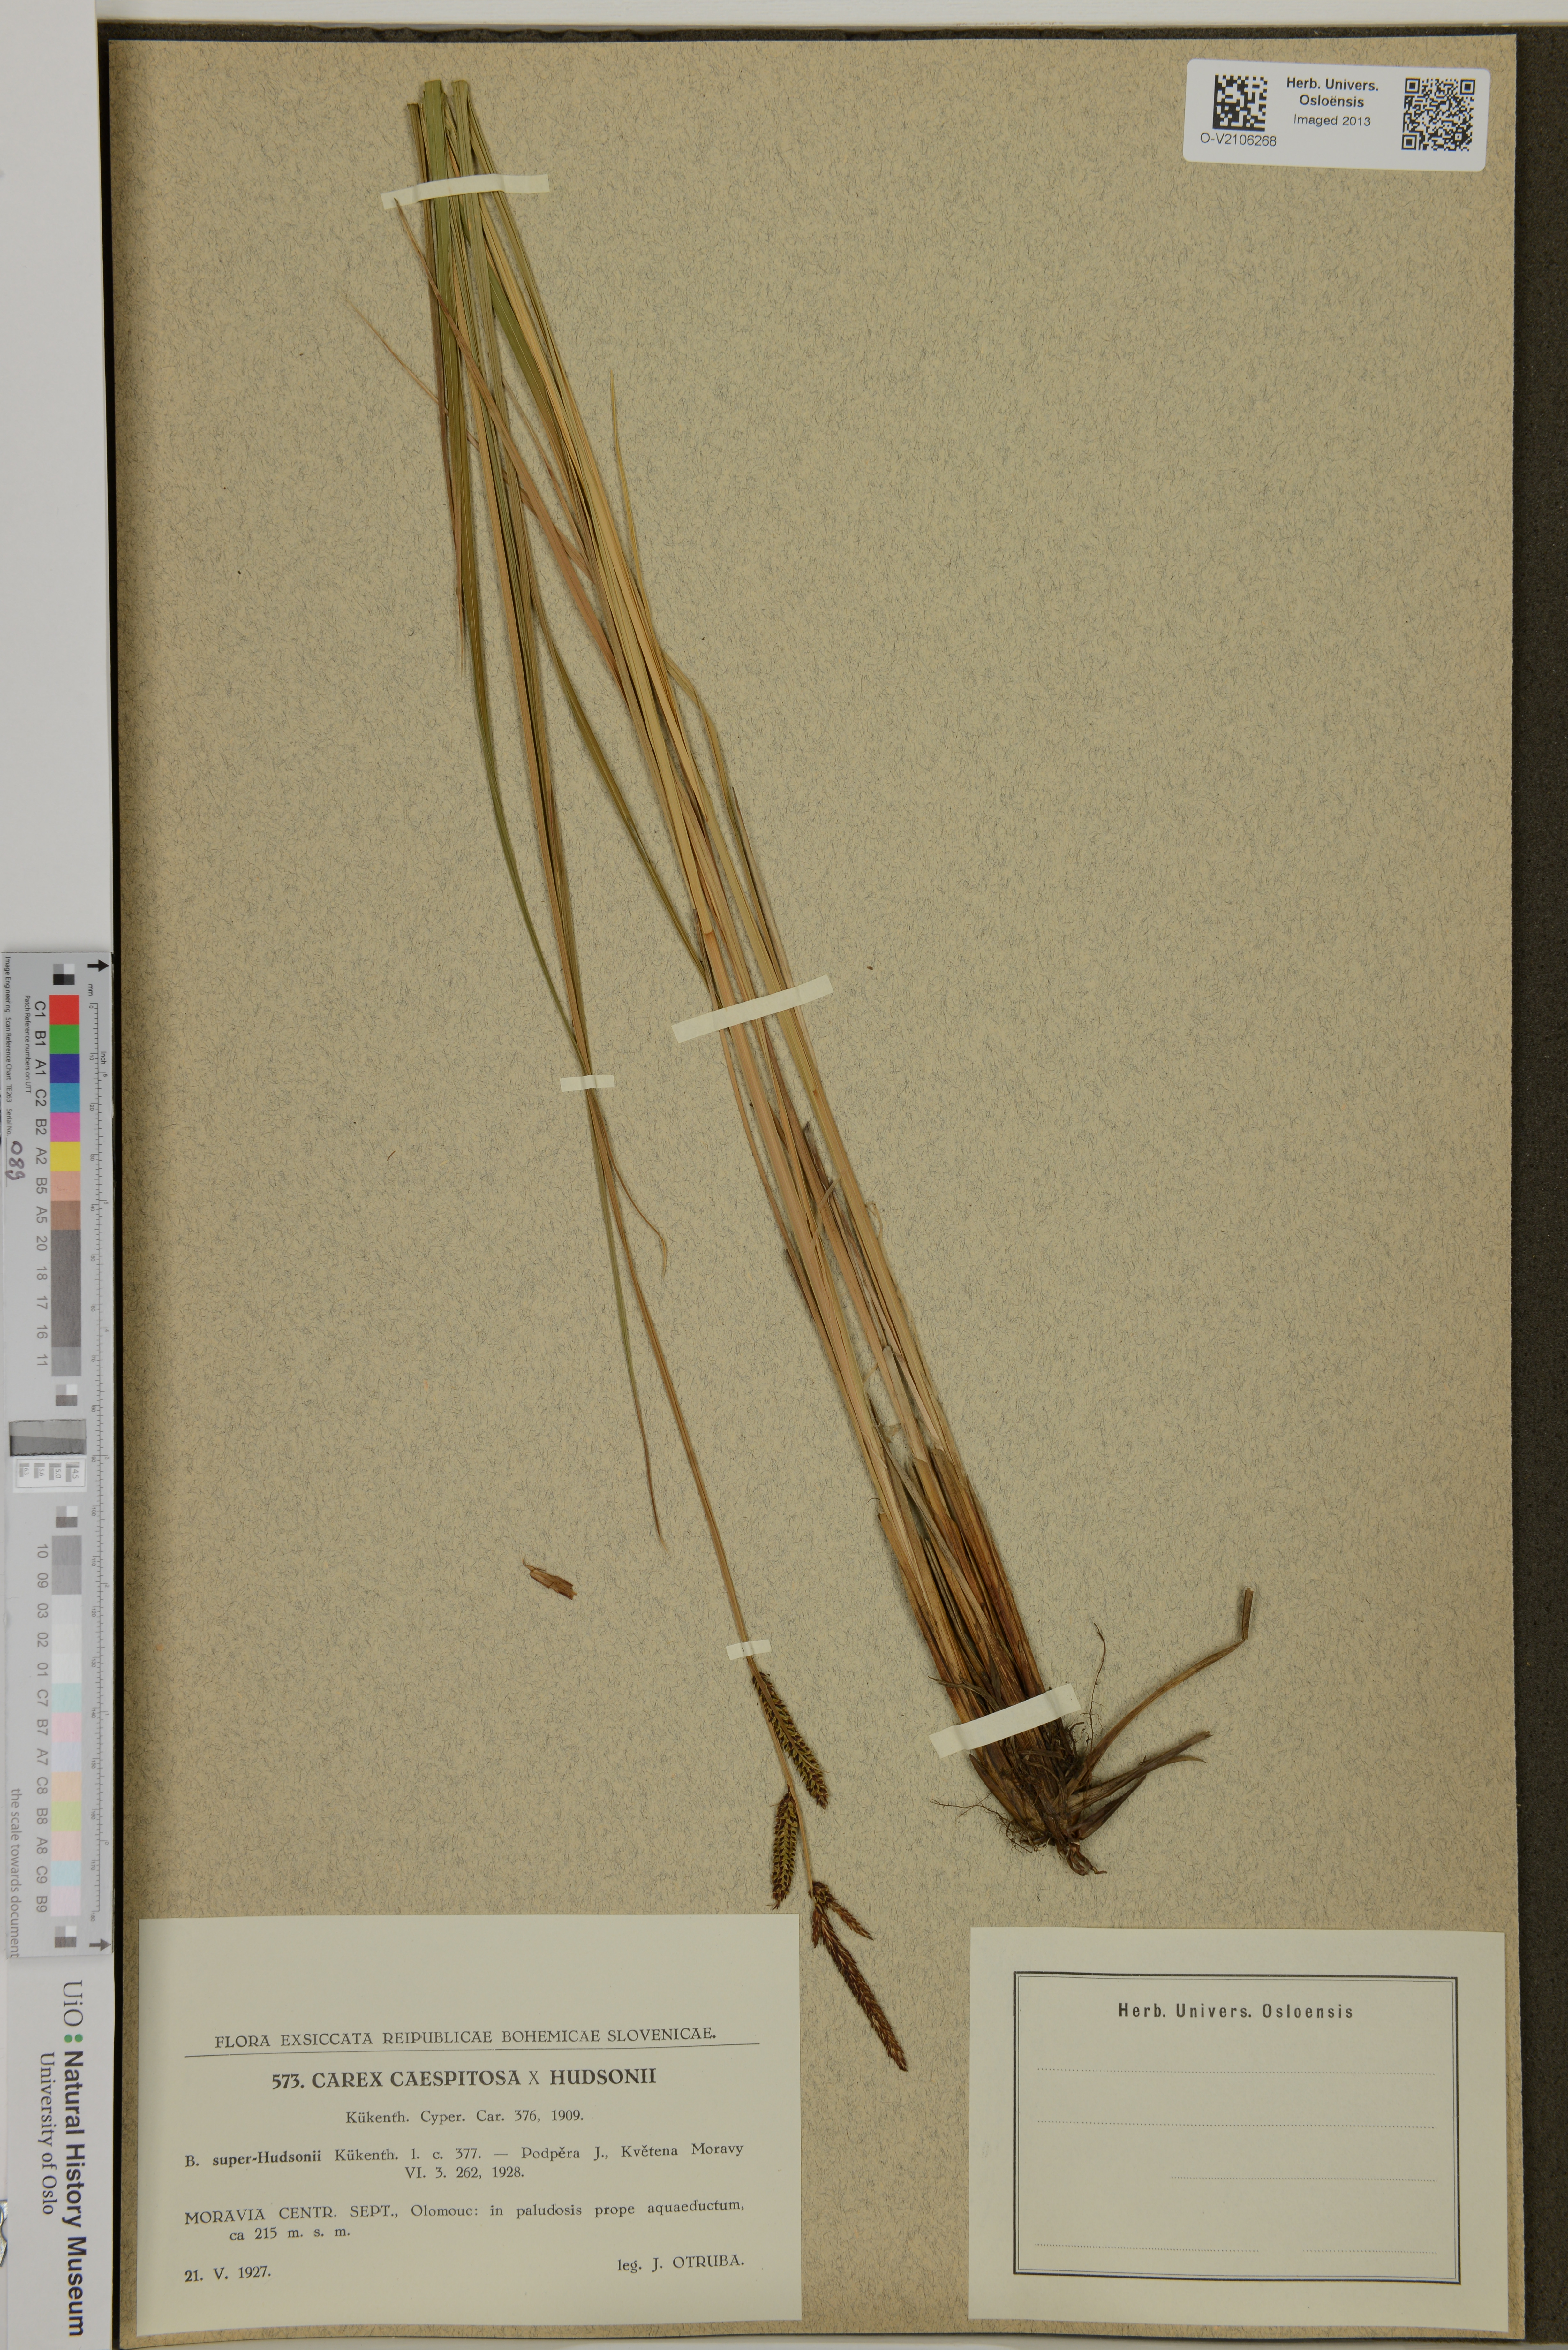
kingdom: Plantae
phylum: Tracheophyta
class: Liliopsida
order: Poales
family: Cyperaceae
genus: Carex
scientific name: Carex
